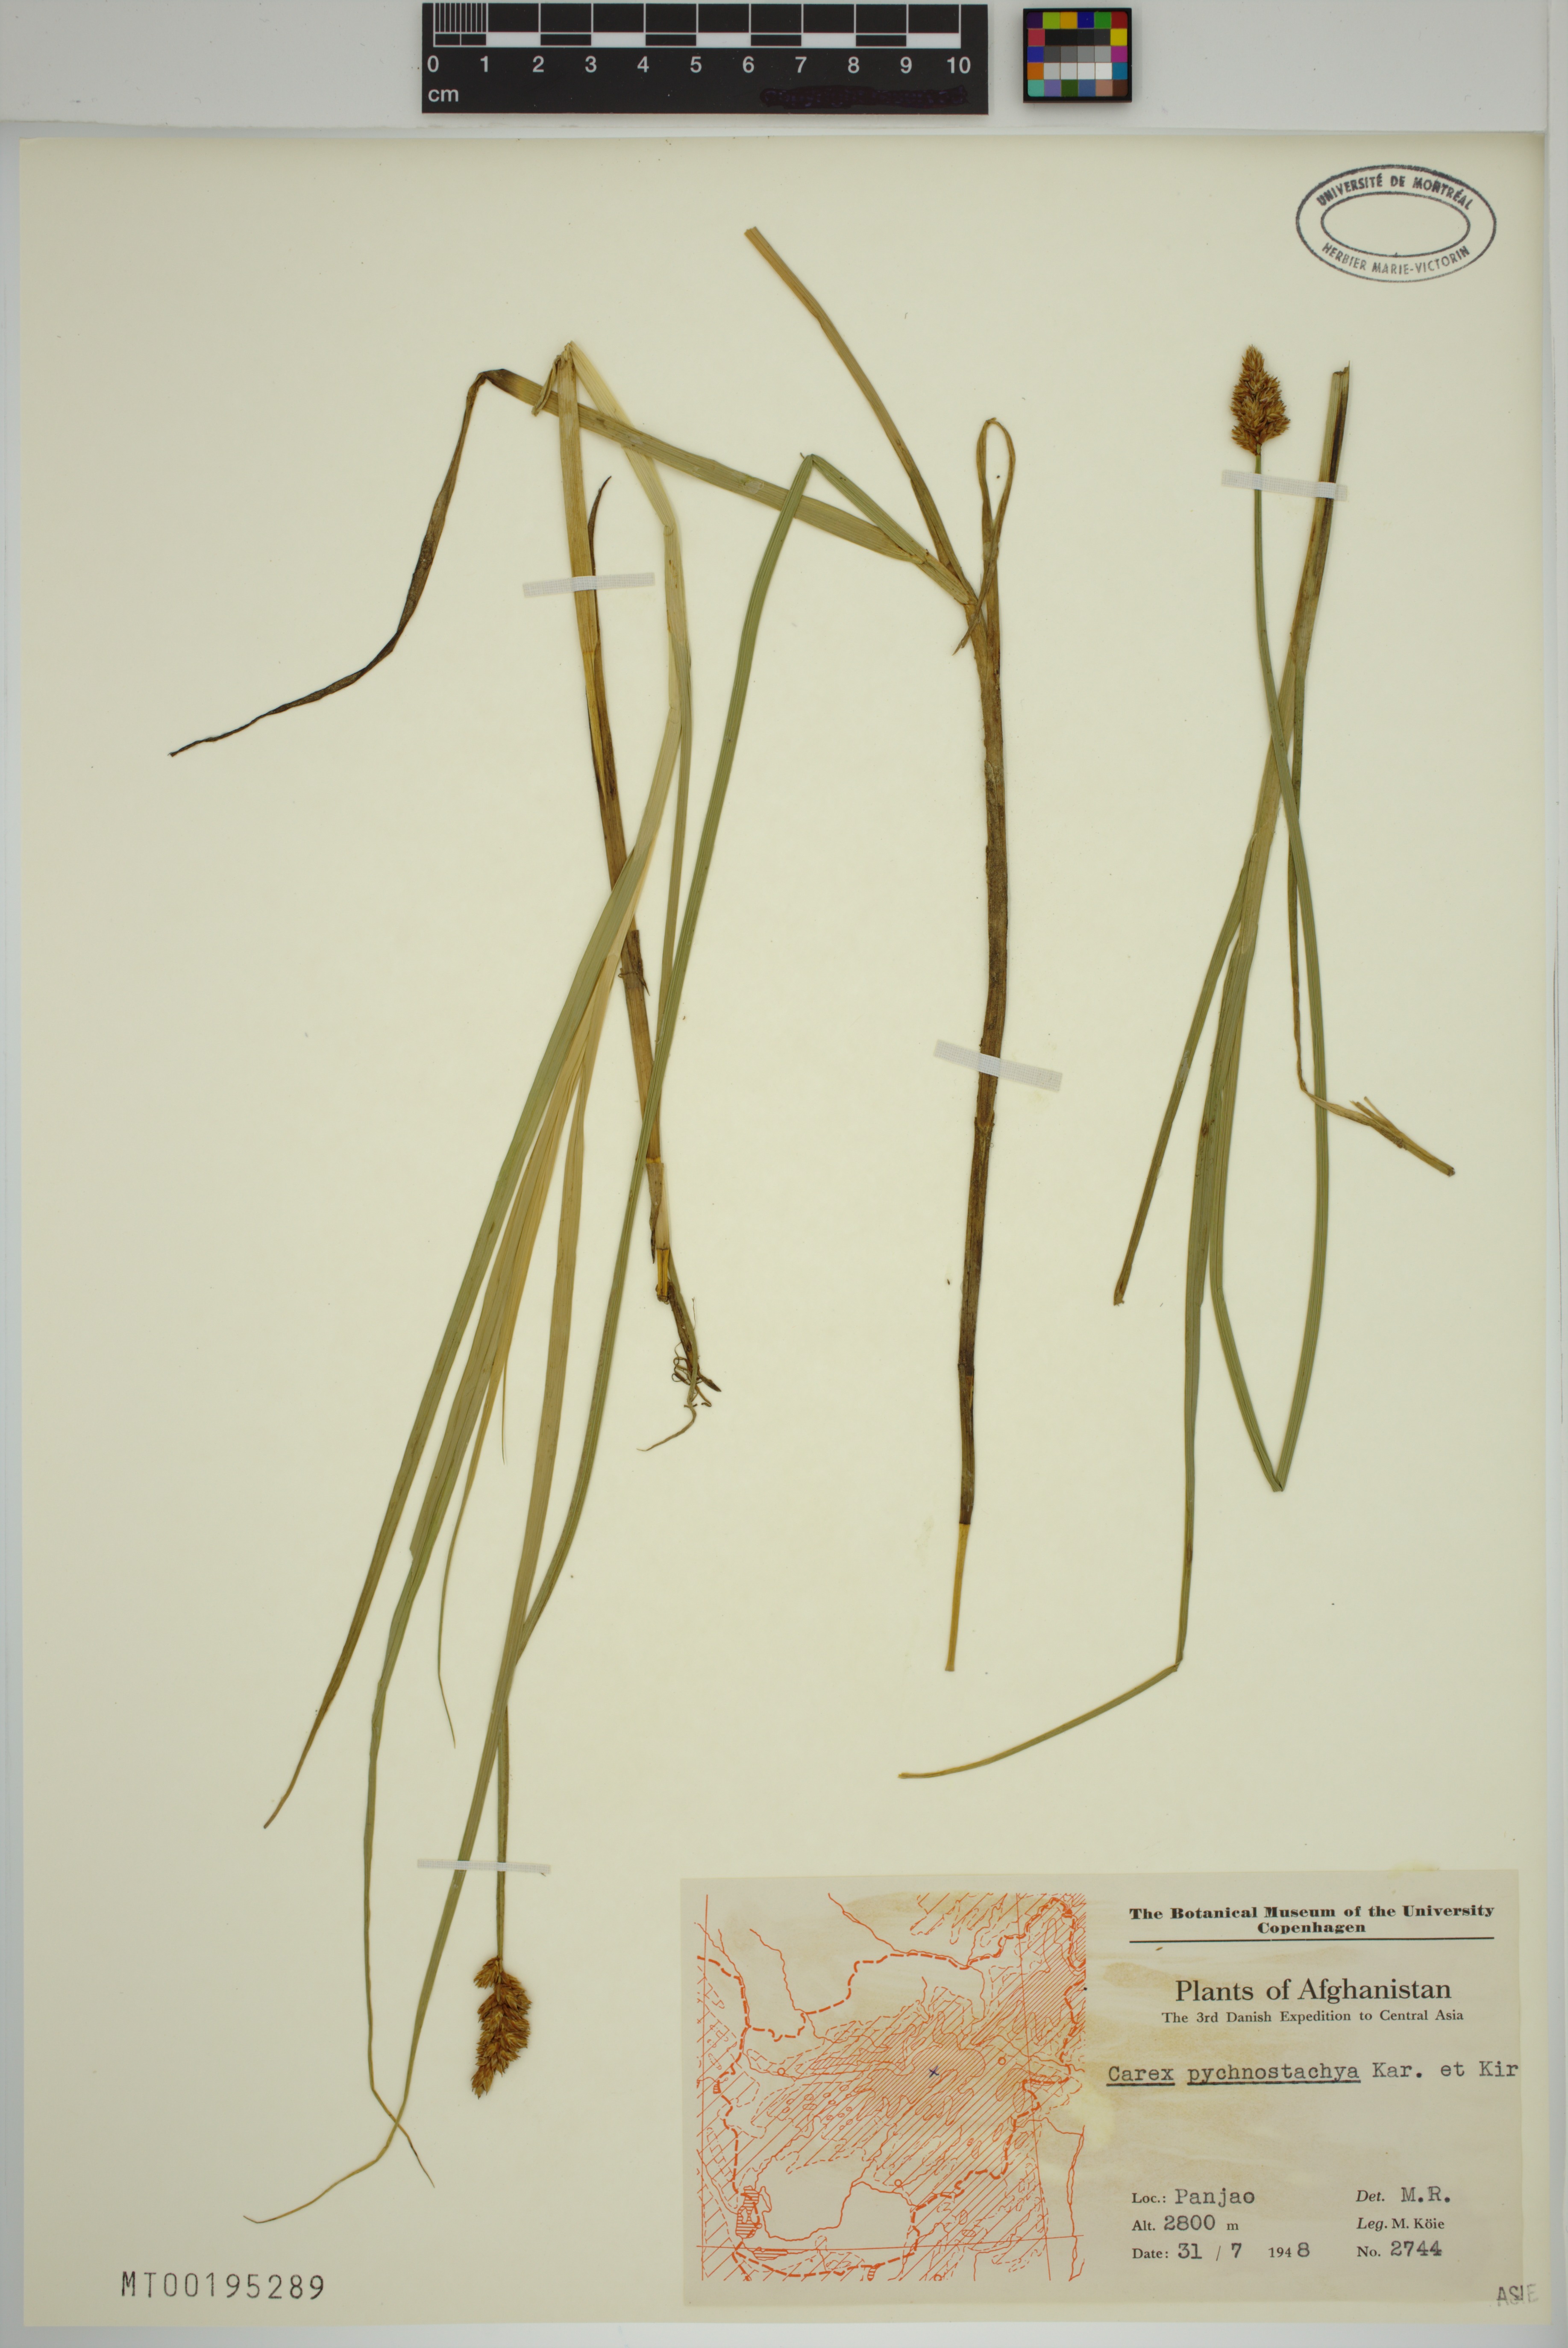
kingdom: Plantae
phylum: Tracheophyta
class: Liliopsida
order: Poales
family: Cyperaceae
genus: Carex
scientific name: Carex pycnostachya
